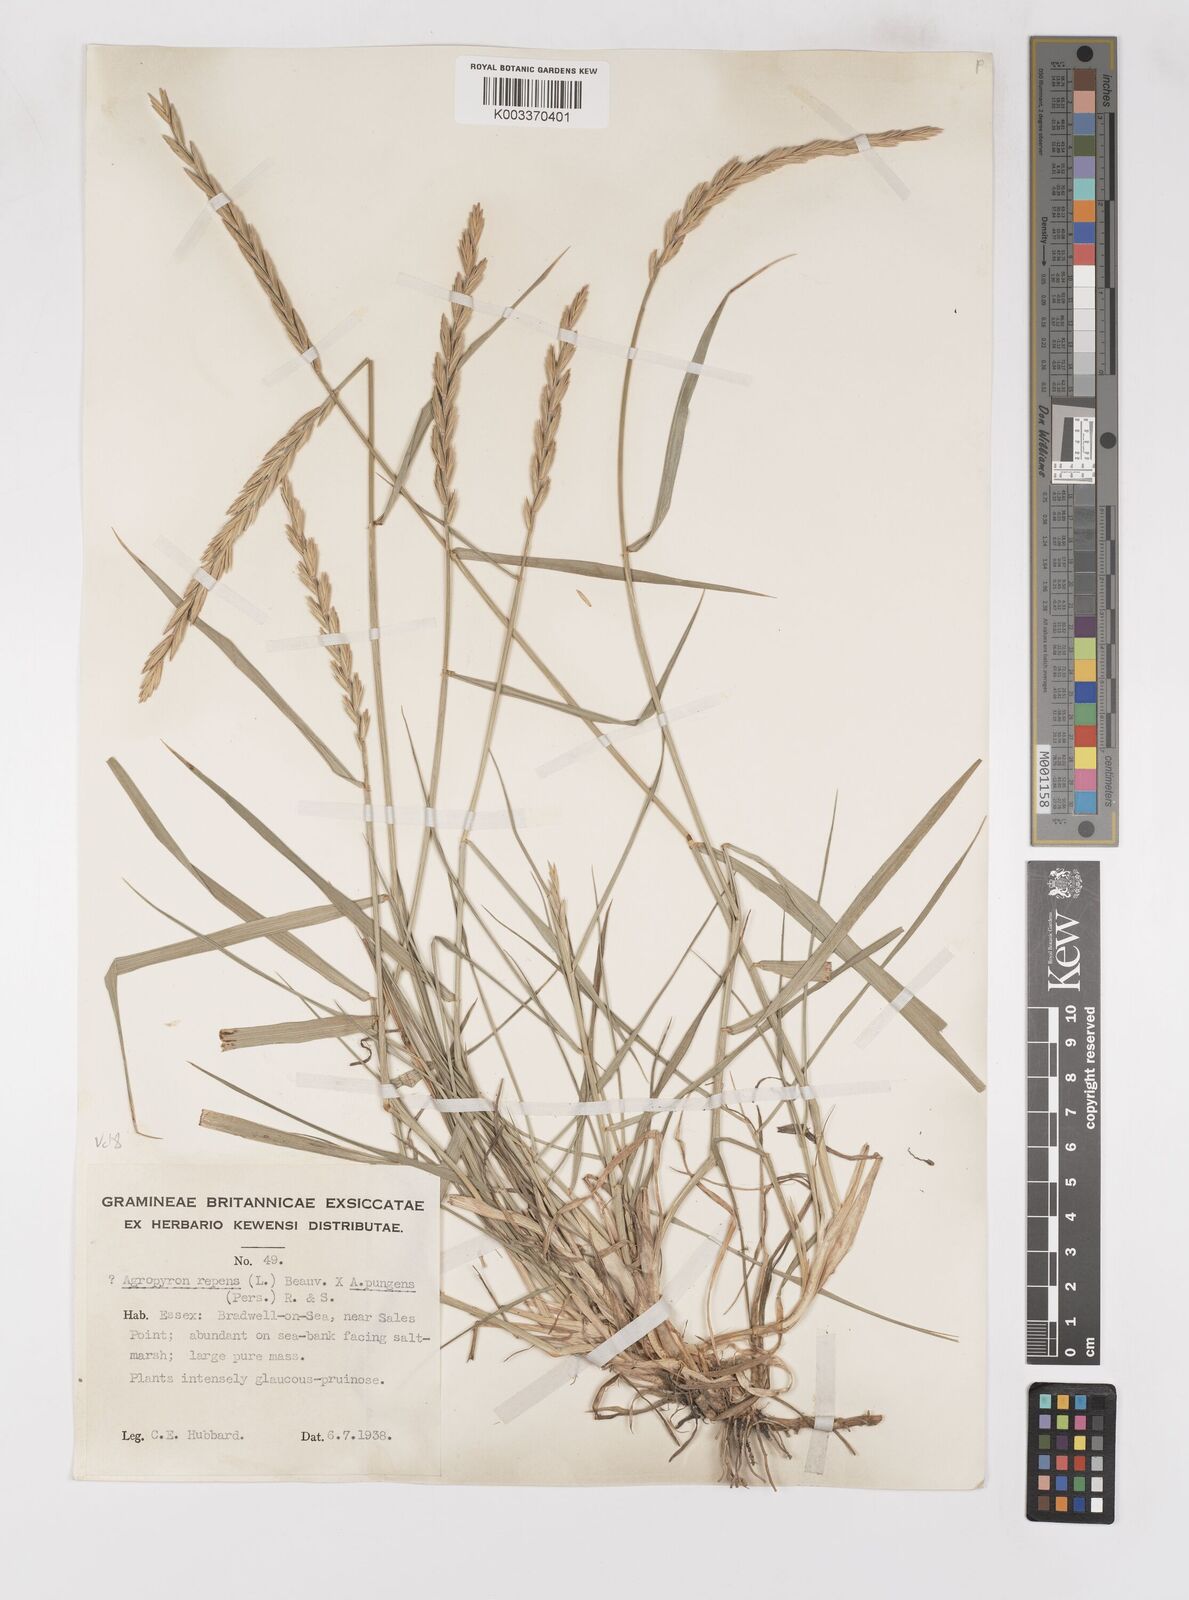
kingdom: Plantae
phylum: Tracheophyta
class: Liliopsida
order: Poales
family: Poaceae
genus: Elymus
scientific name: Elymus oliveri
